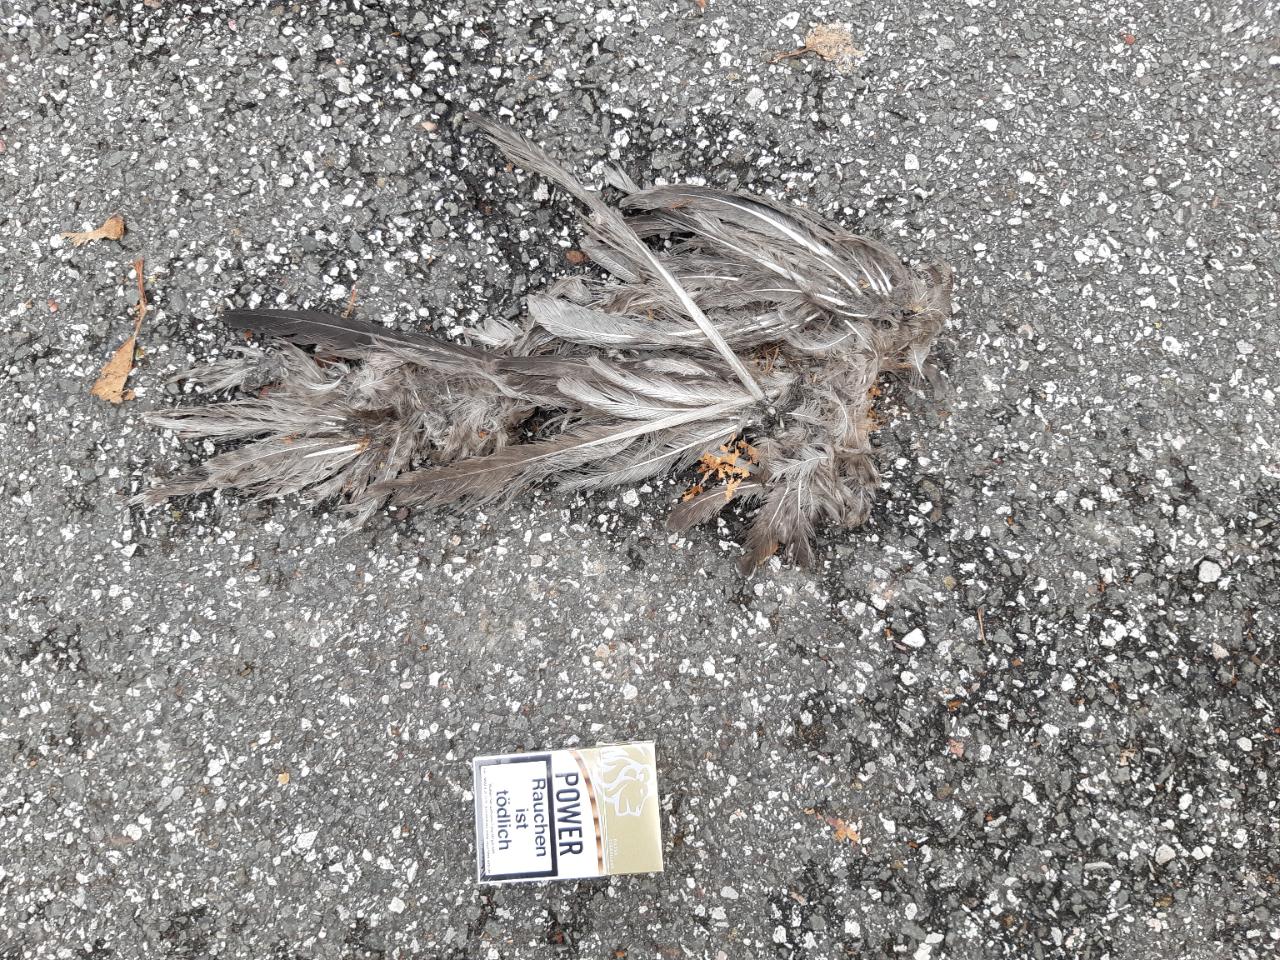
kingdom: Animalia
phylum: Chordata
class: Aves
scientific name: Aves
